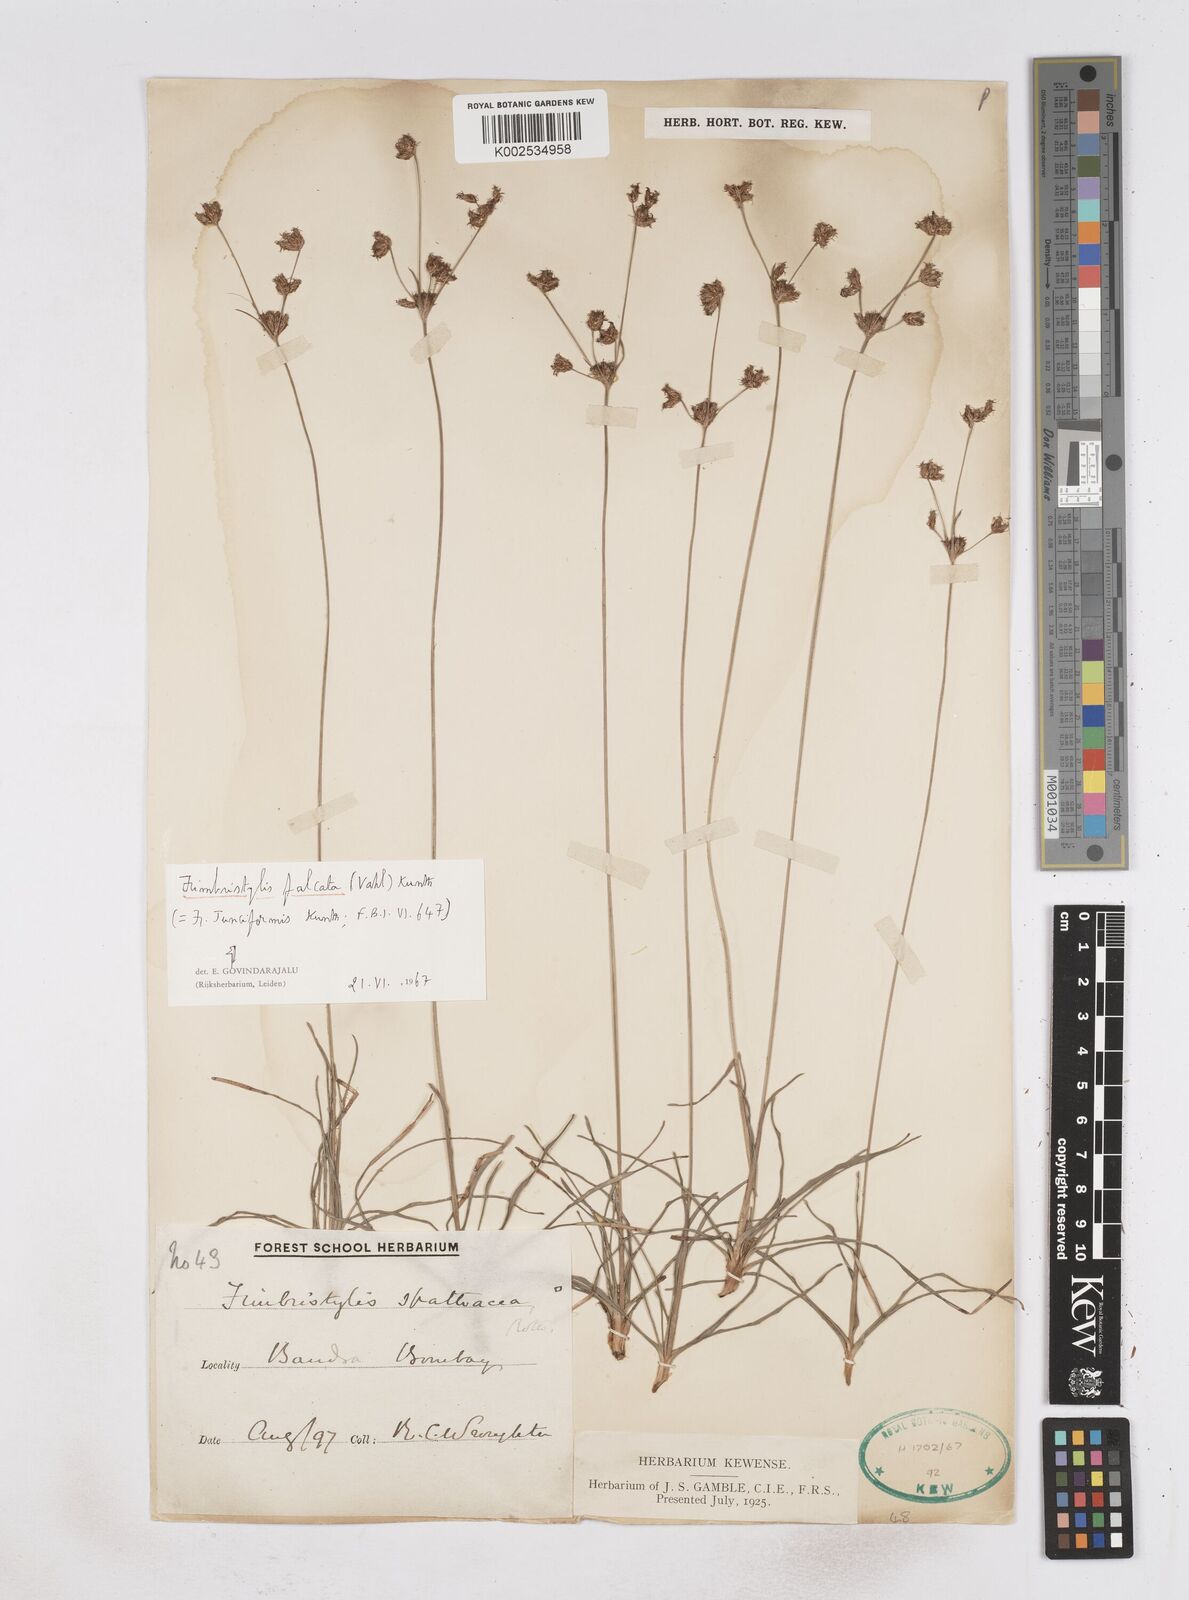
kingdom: Plantae
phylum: Tracheophyta
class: Liliopsida
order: Poales
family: Cyperaceae
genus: Fimbristylis
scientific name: Fimbristylis falcata
